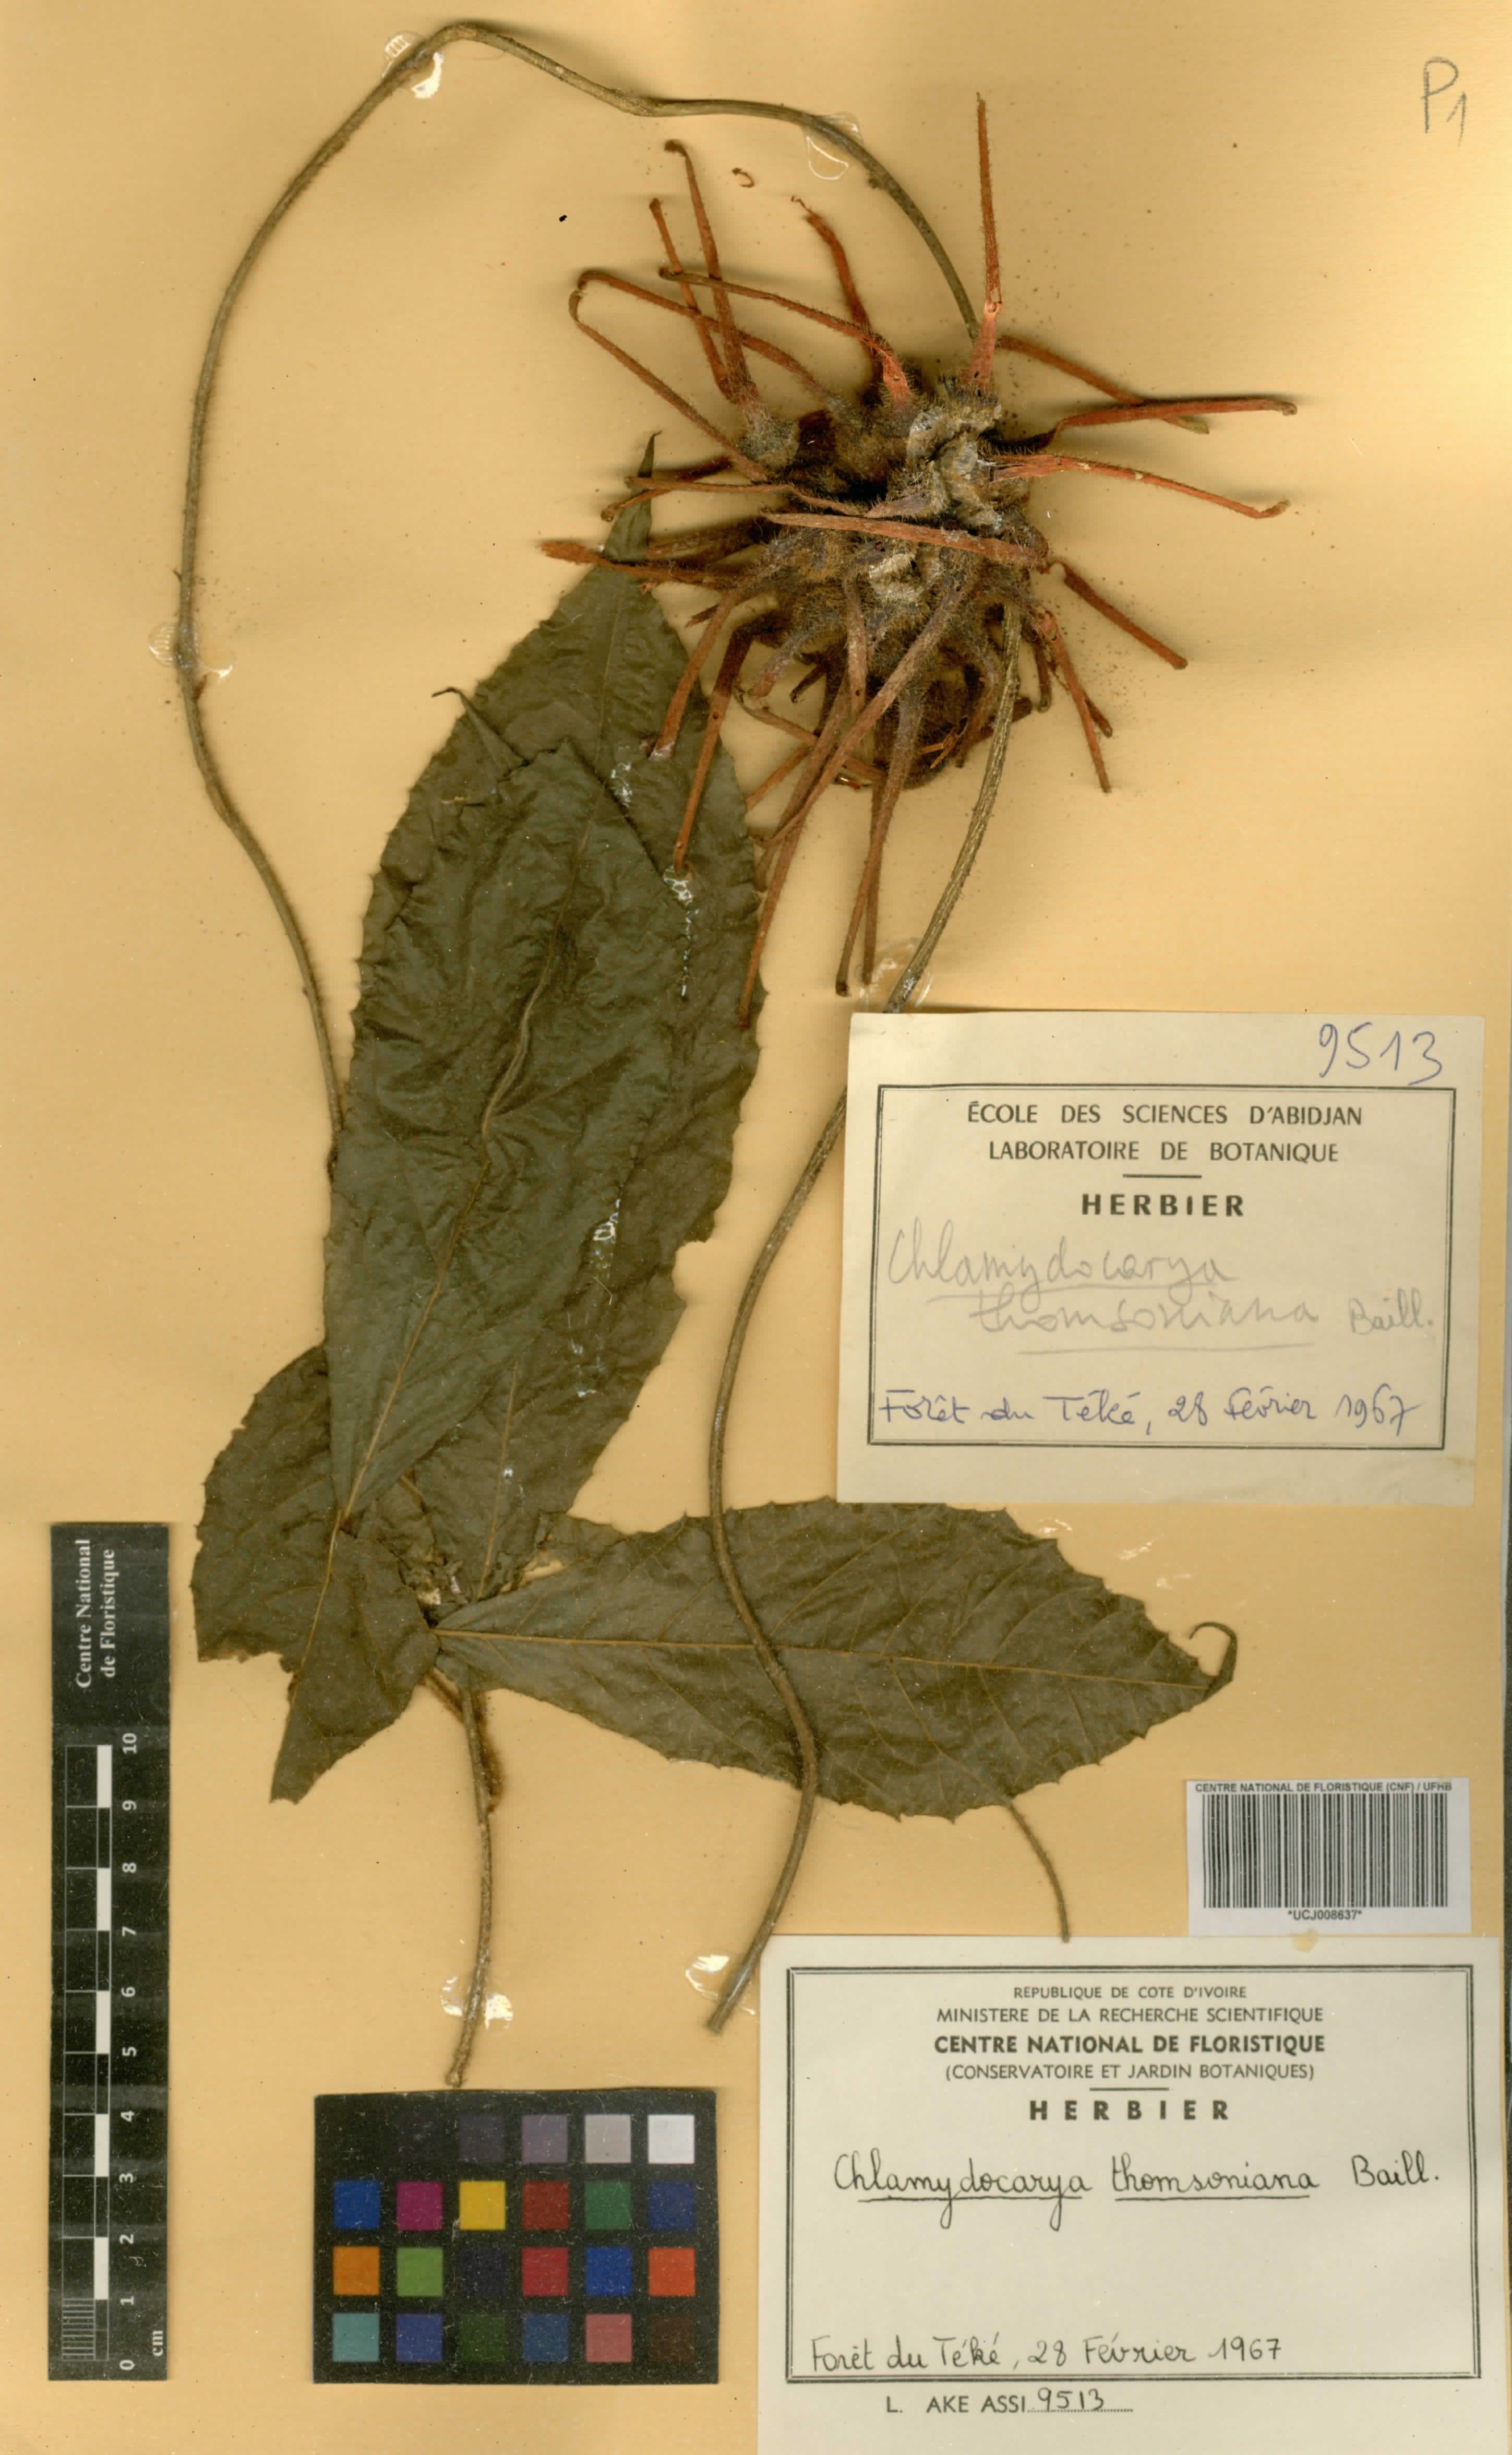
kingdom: Plantae
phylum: Tracheophyta
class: Magnoliopsida
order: Icacinales
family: Icacinaceae
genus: Pyrenacantha
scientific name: Pyrenacantha thomsoniana
